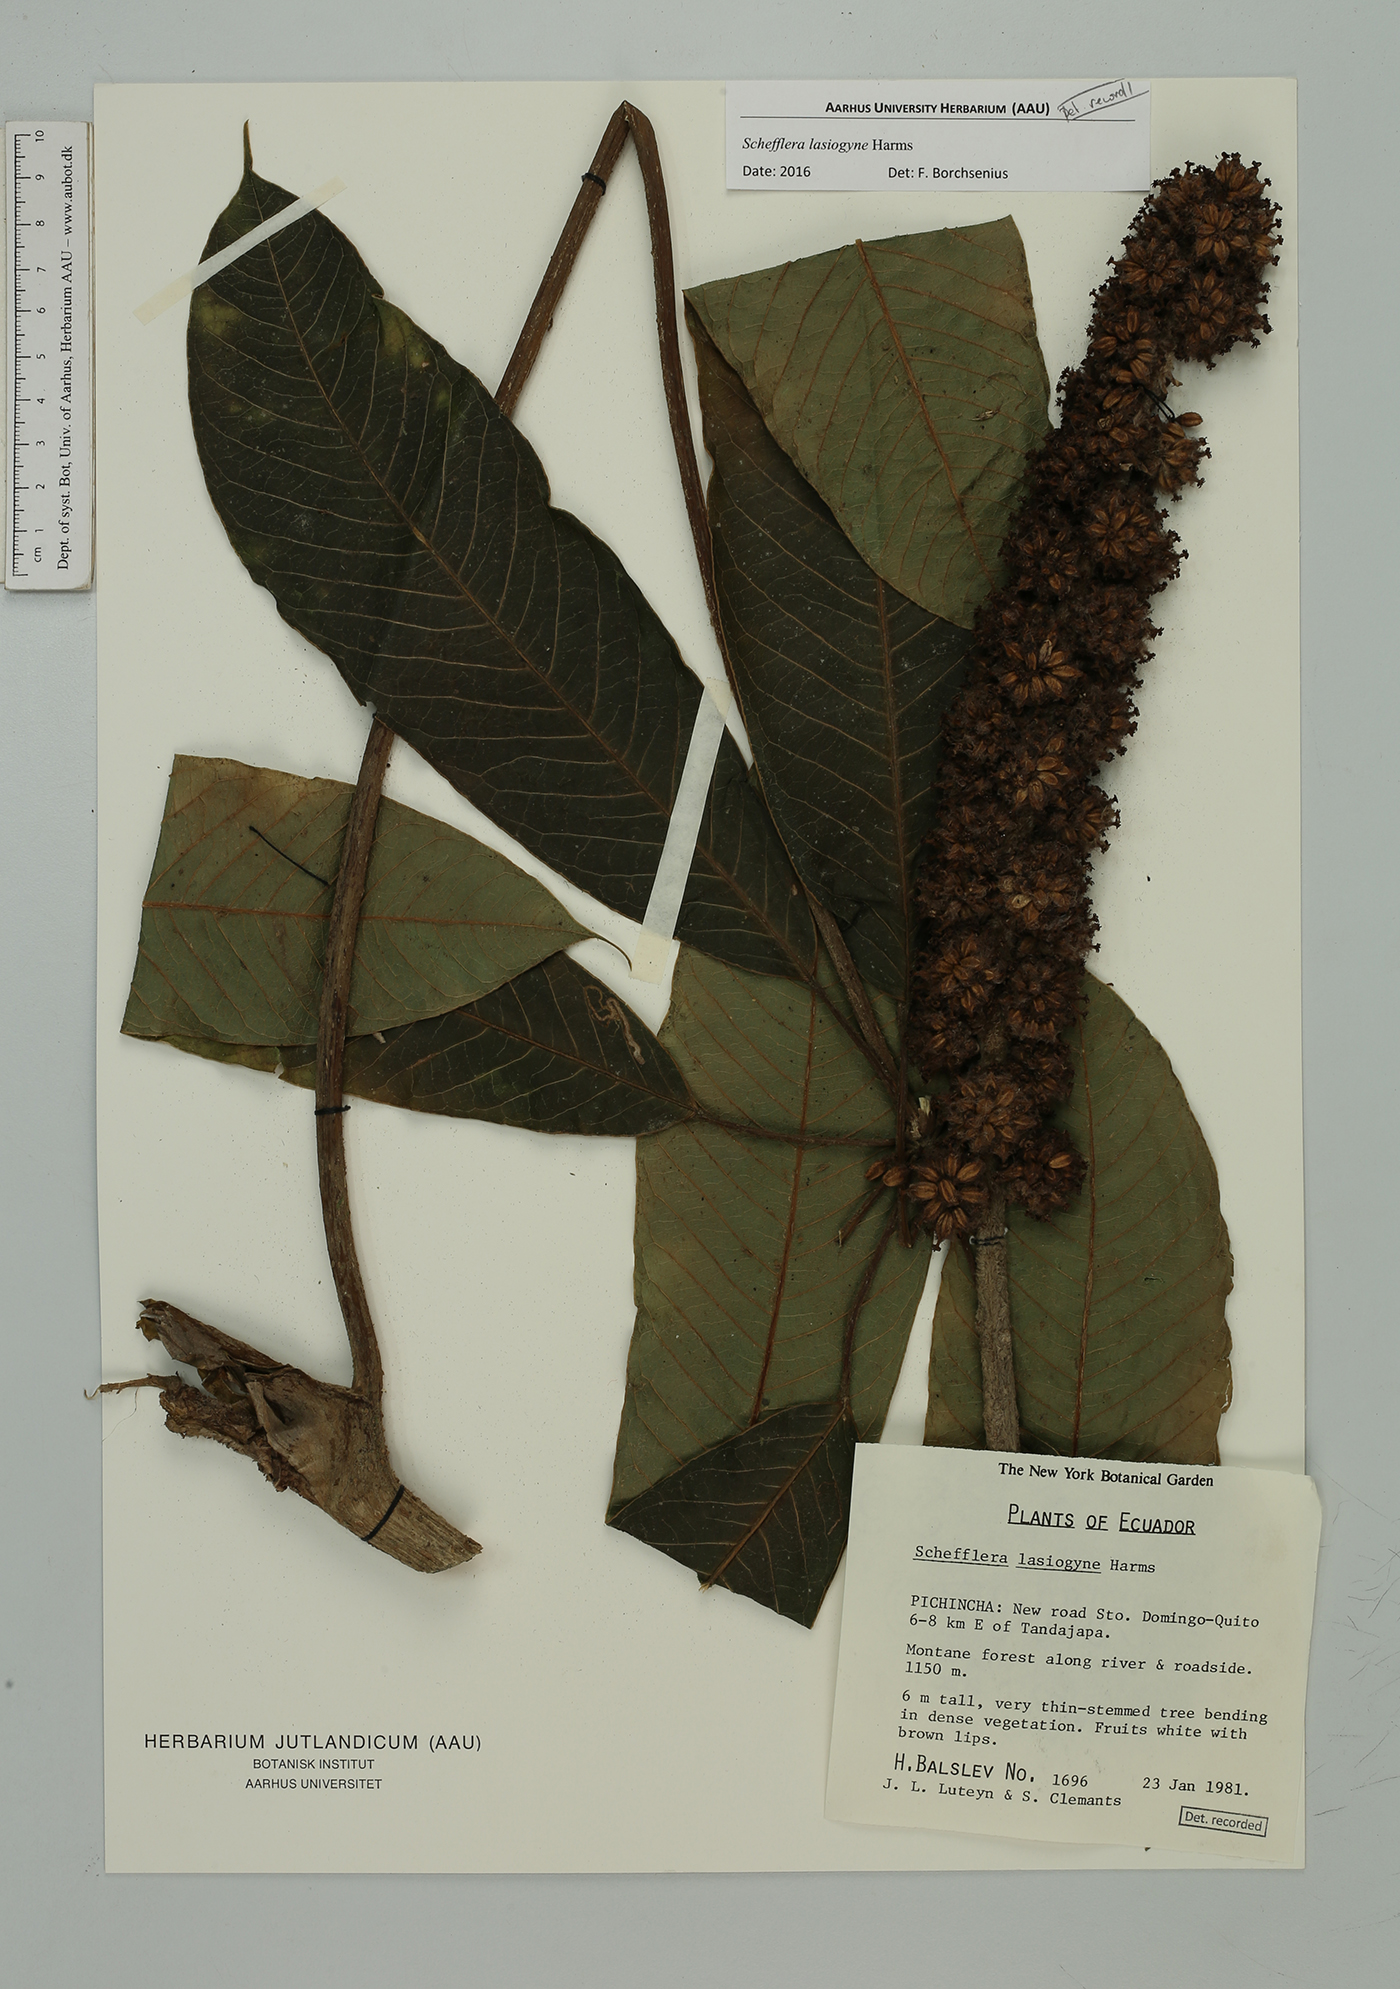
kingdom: Plantae
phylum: Tracheophyta
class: Magnoliopsida
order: Apiales
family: Araliaceae
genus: Sciodaphyllum
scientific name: Sciodaphyllum lasiogyne
